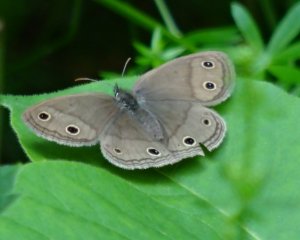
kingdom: Animalia
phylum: Arthropoda
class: Insecta
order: Lepidoptera
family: Nymphalidae
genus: Euptychia
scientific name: Euptychia cymela
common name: Little Wood Satyr
